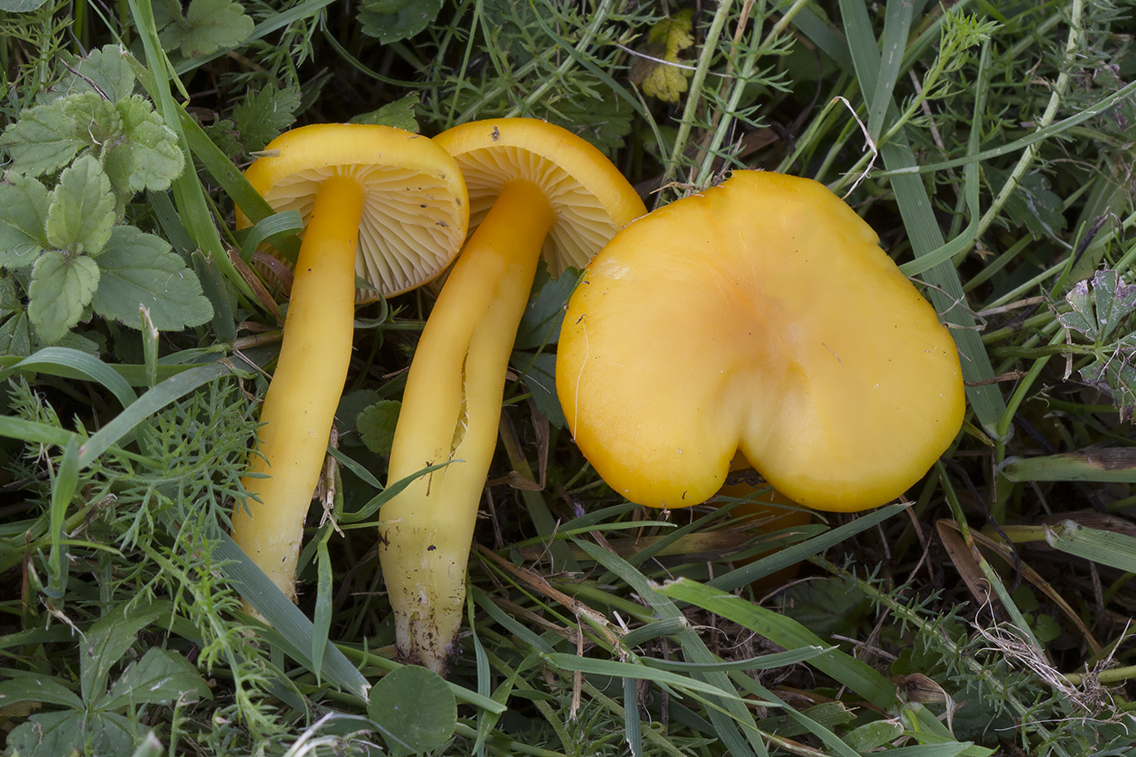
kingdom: Fungi
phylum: Basidiomycota
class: Agaricomycetes
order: Agaricales
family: Hygrophoraceae
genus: Hygrocybe
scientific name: Hygrocybe quieta
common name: tæge-vokshat
